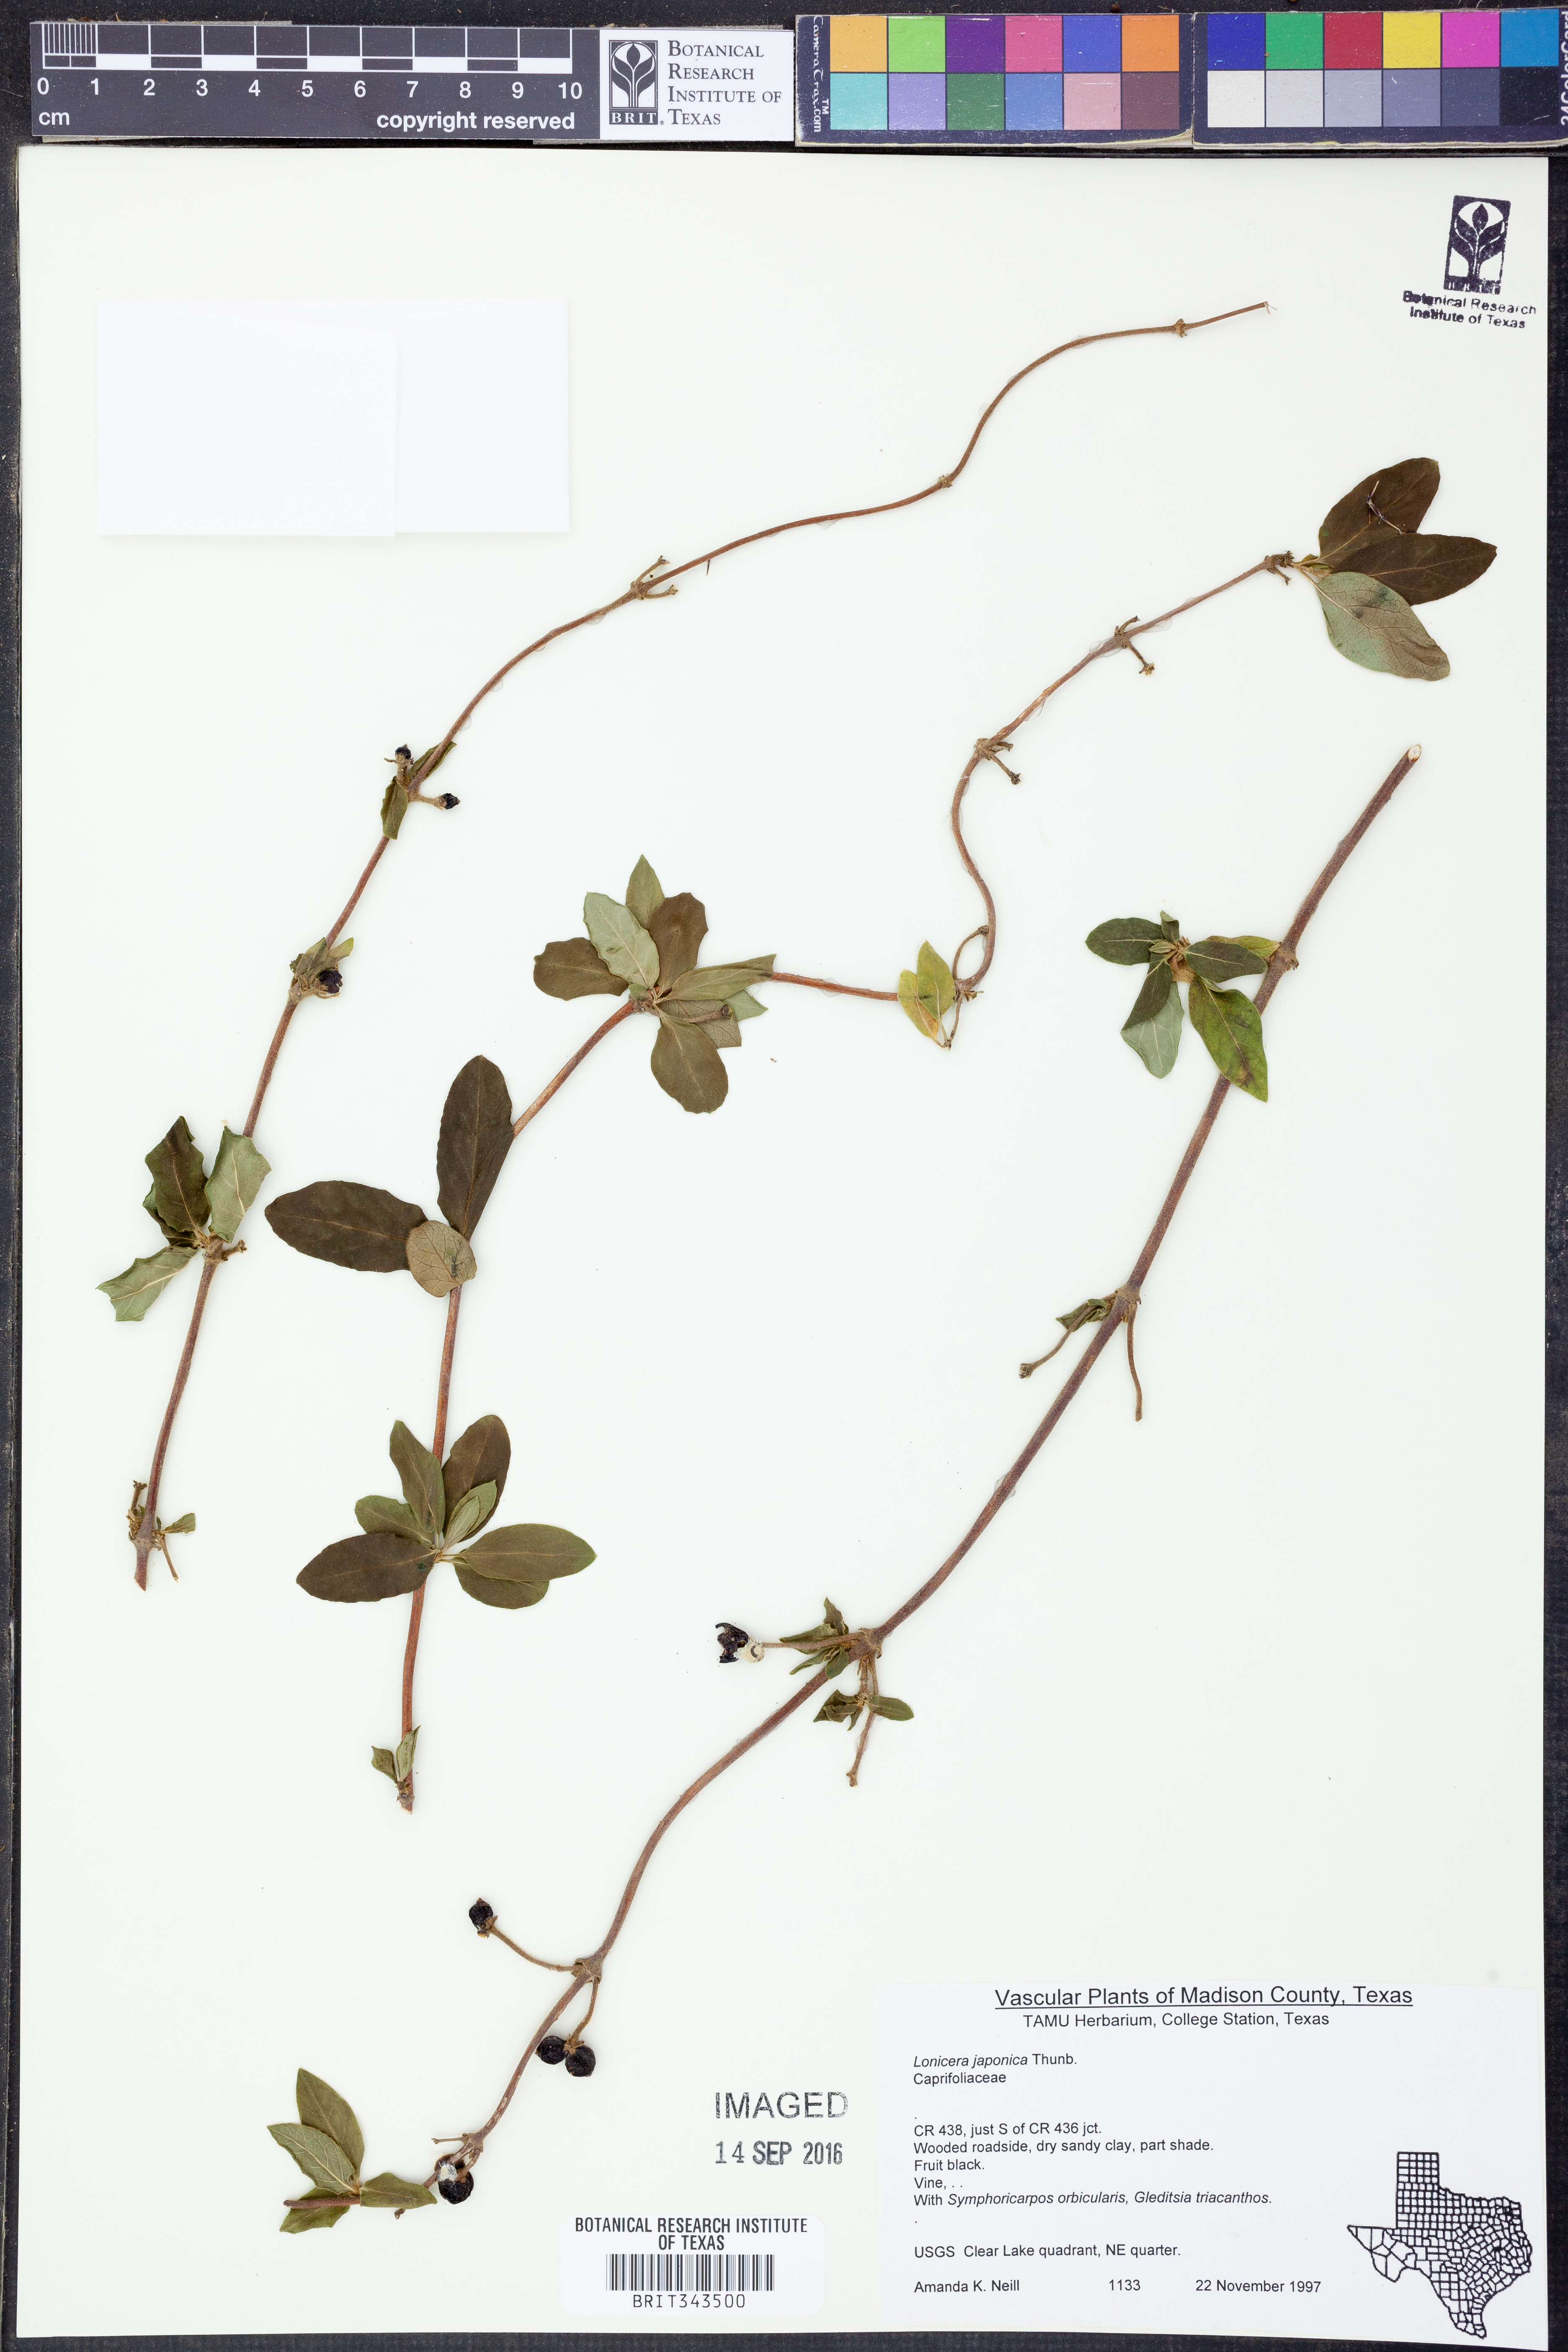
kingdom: Plantae
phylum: Tracheophyta
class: Magnoliopsida
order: Dipsacales
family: Caprifoliaceae
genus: Lonicera
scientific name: Lonicera japonica
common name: Japanese honeysuckle
